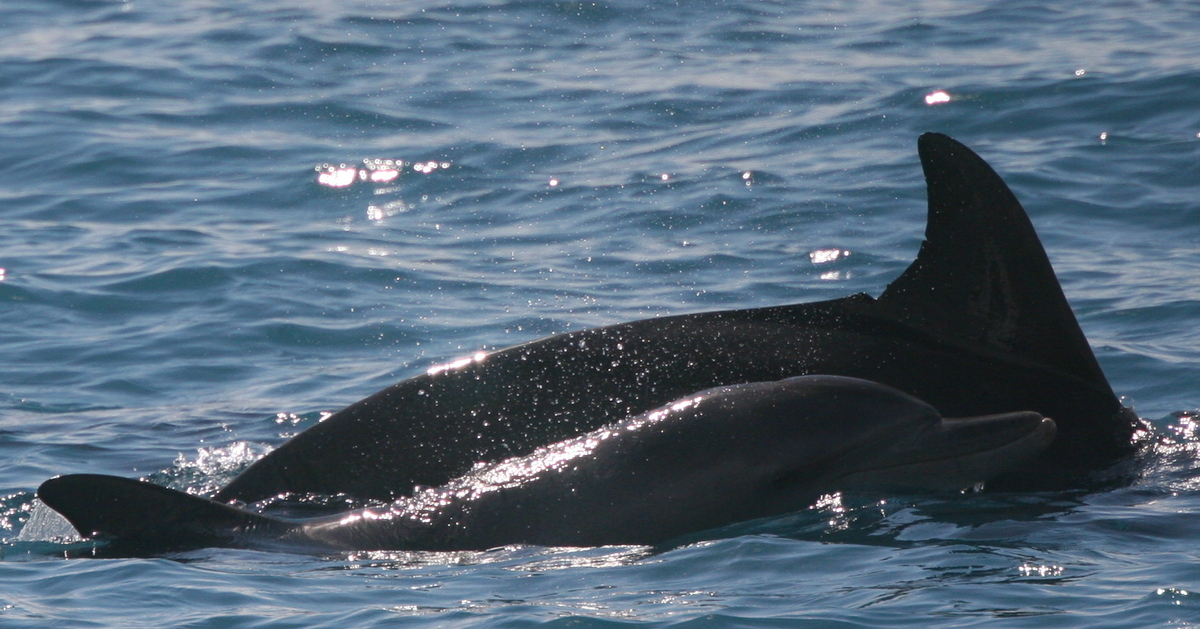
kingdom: Animalia
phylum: Chordata
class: Mammalia
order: Cetacea
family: Delphinidae
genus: Tursiops
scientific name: Tursiops aduncus
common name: Indian Ocean bottlenose dolphin
